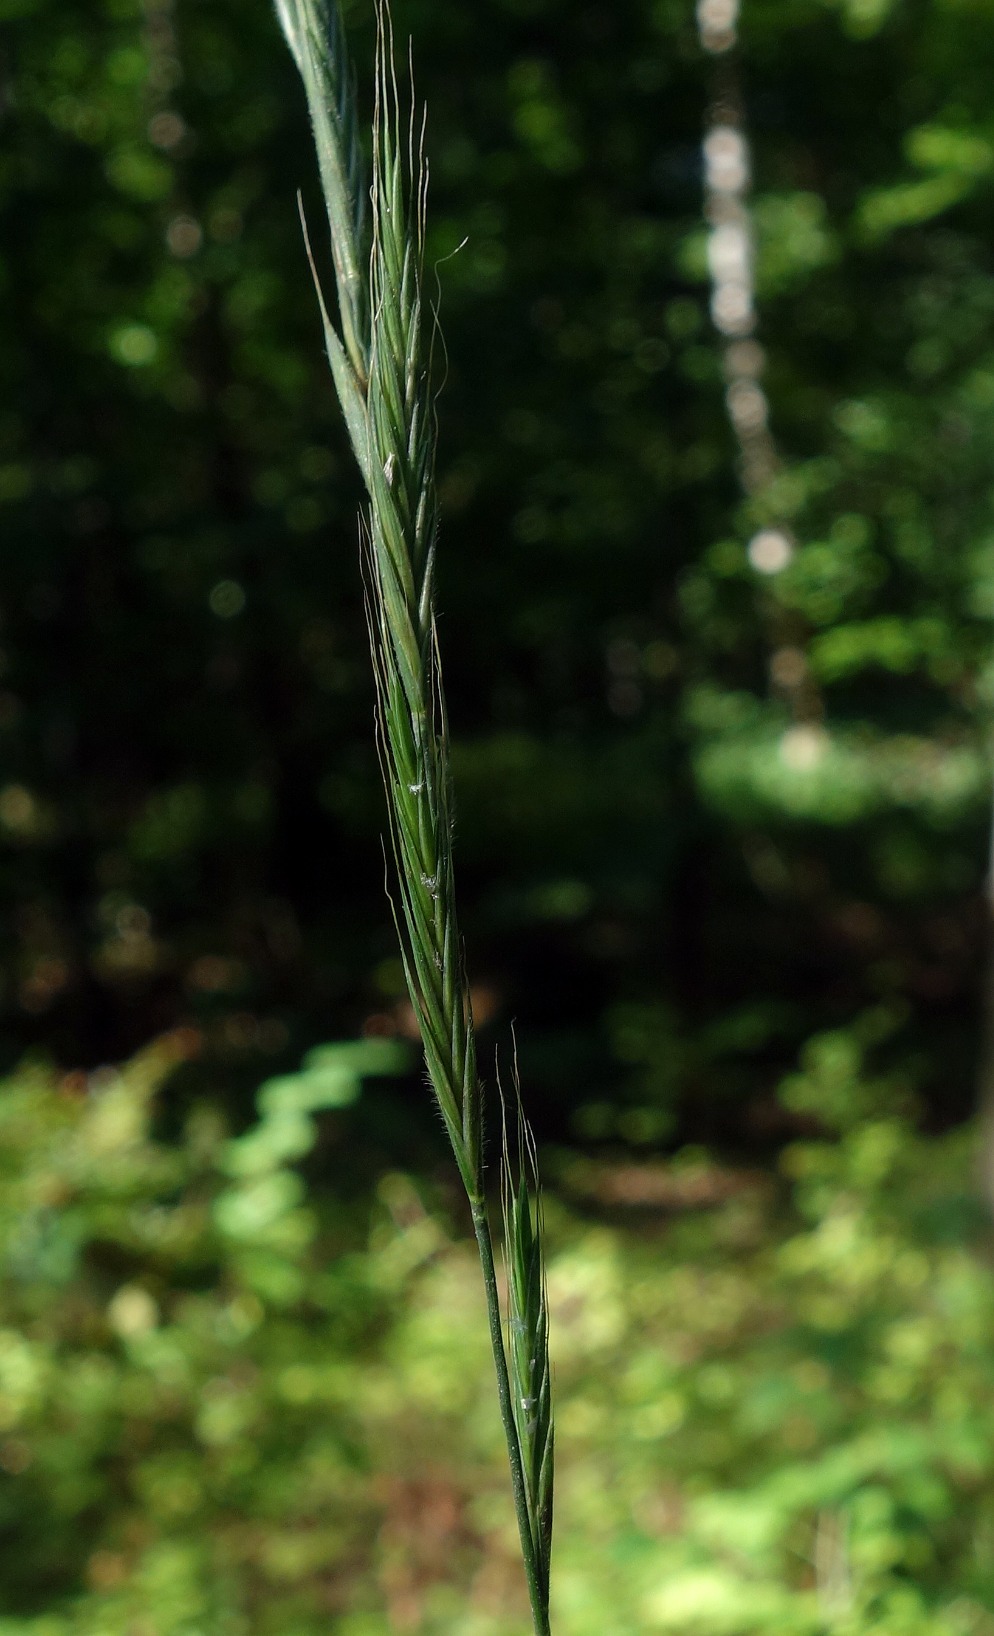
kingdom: Plantae
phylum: Tracheophyta
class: Liliopsida
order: Poales
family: Poaceae
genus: Brachypodium
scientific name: Brachypodium sylvaticum
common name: Skov-stilkaks
